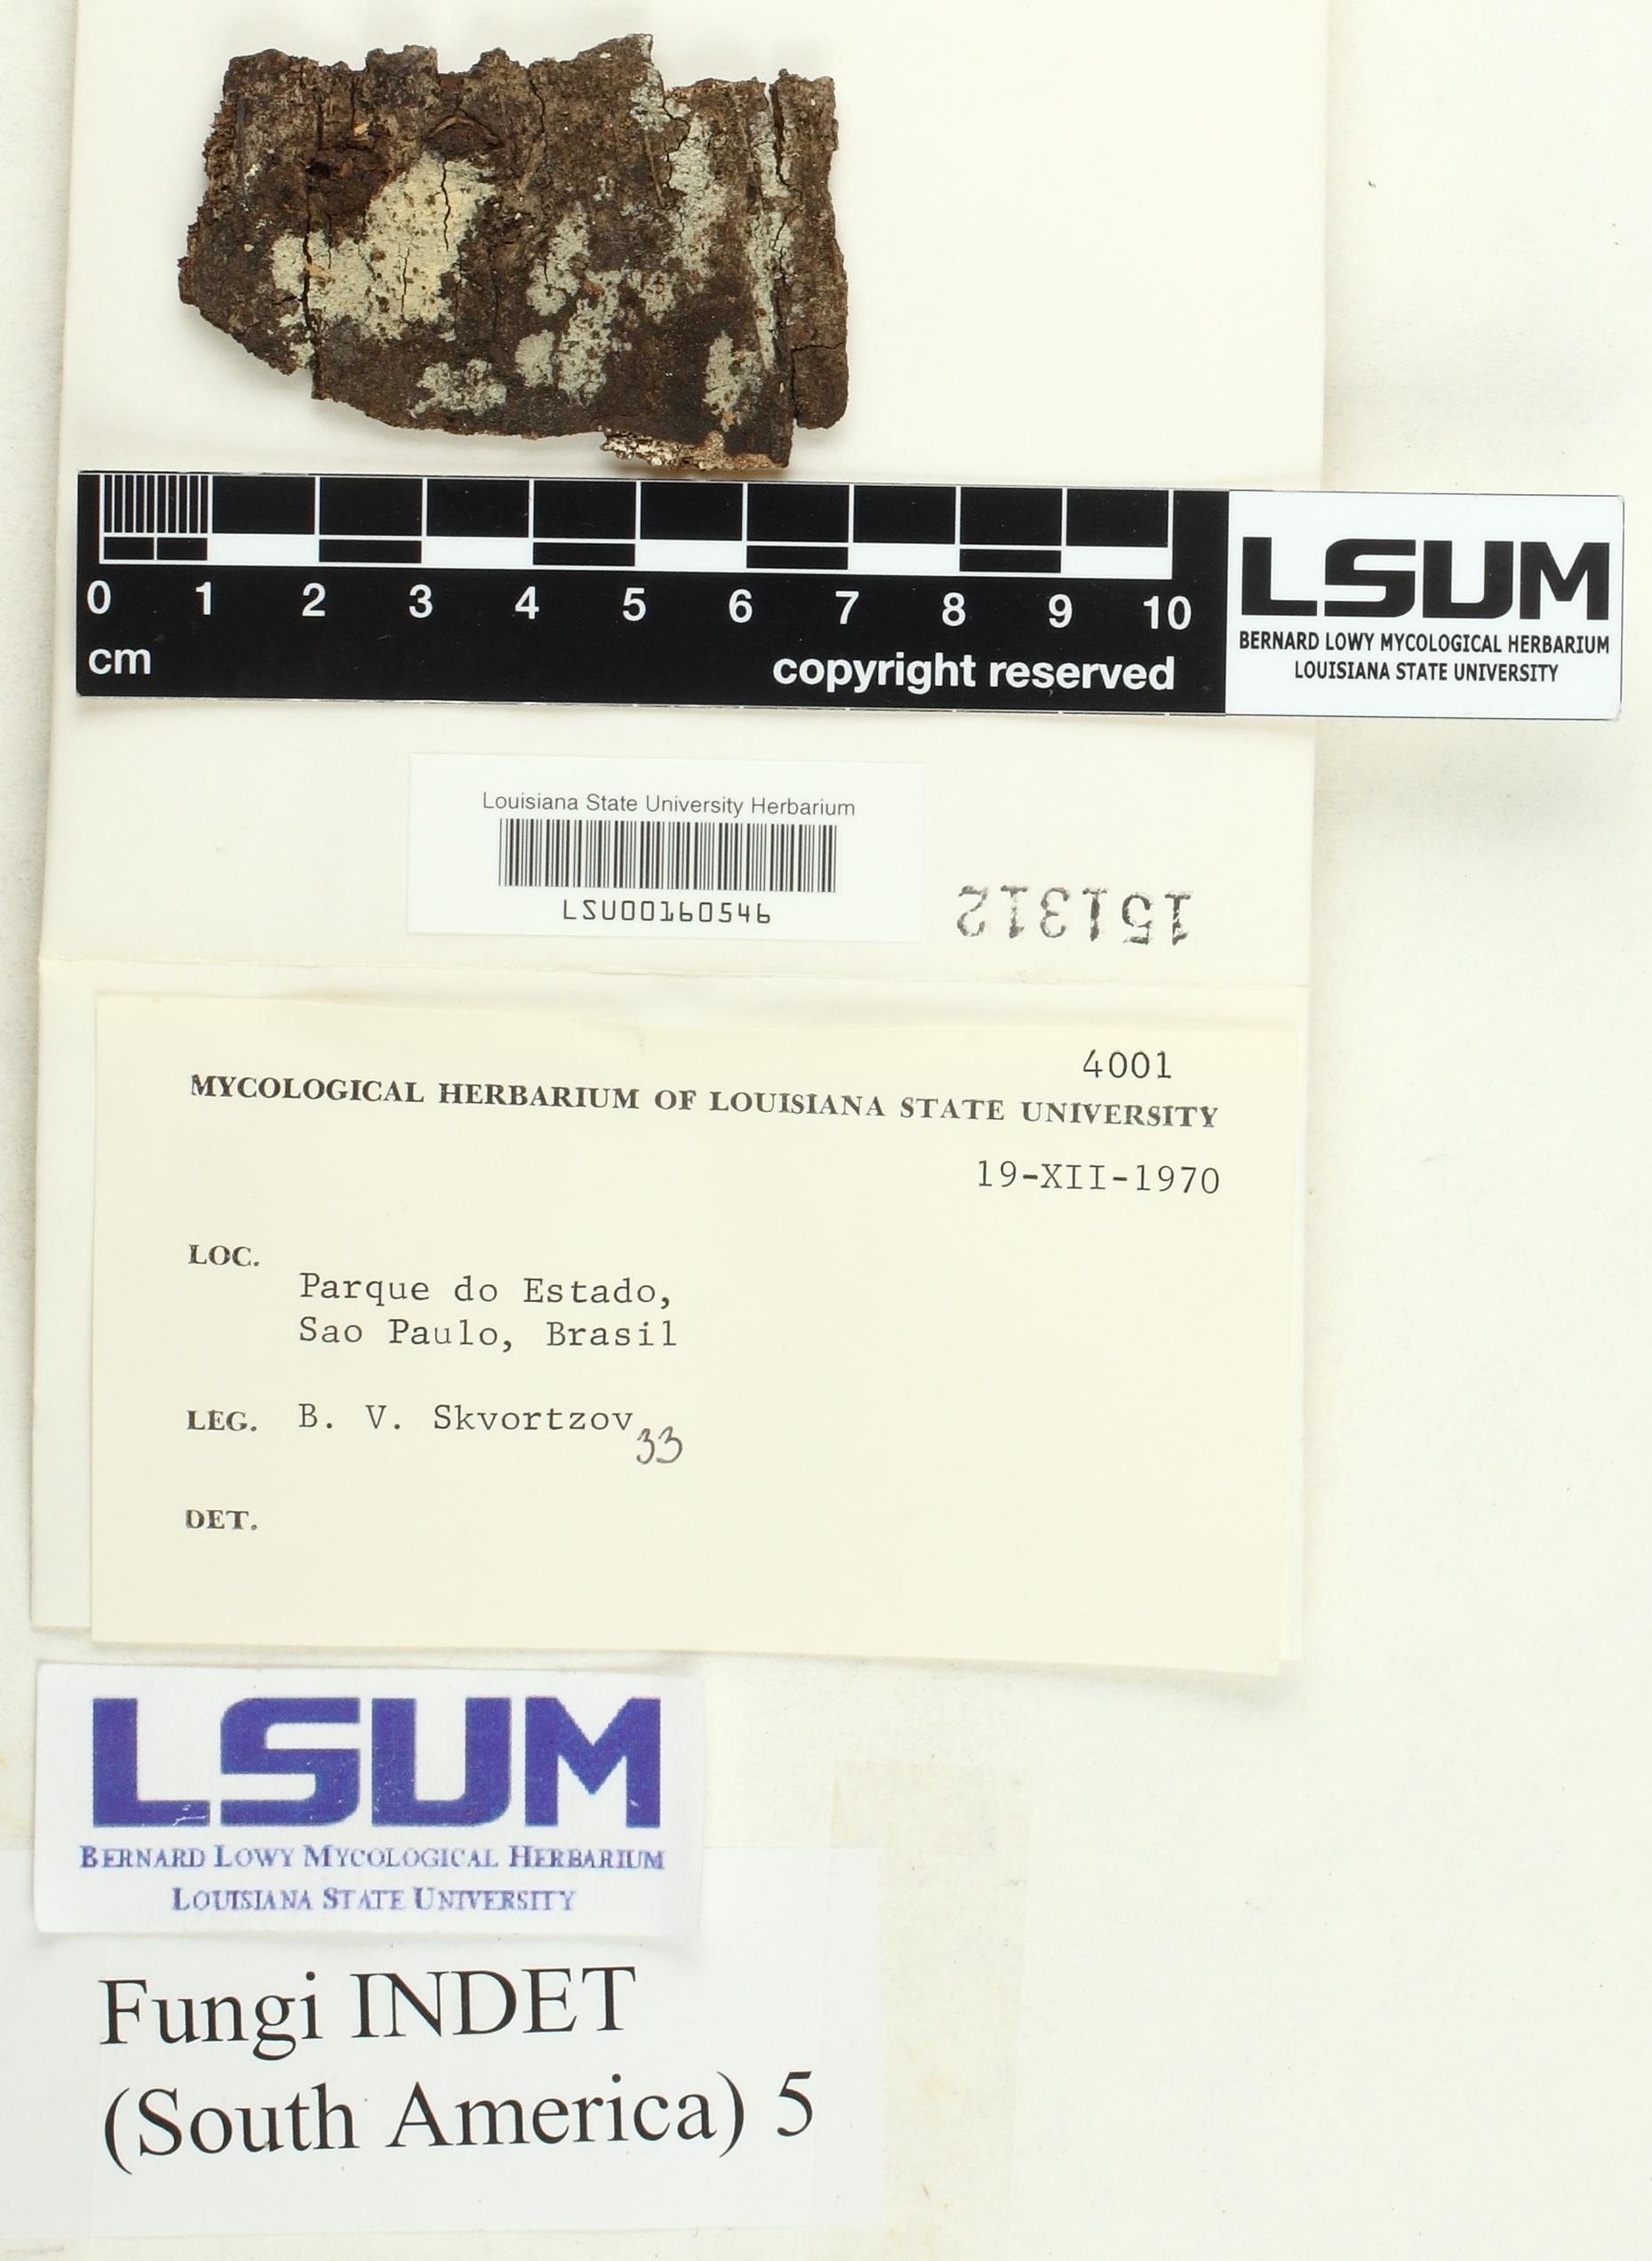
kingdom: Fungi
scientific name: Fungi
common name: Fungi
